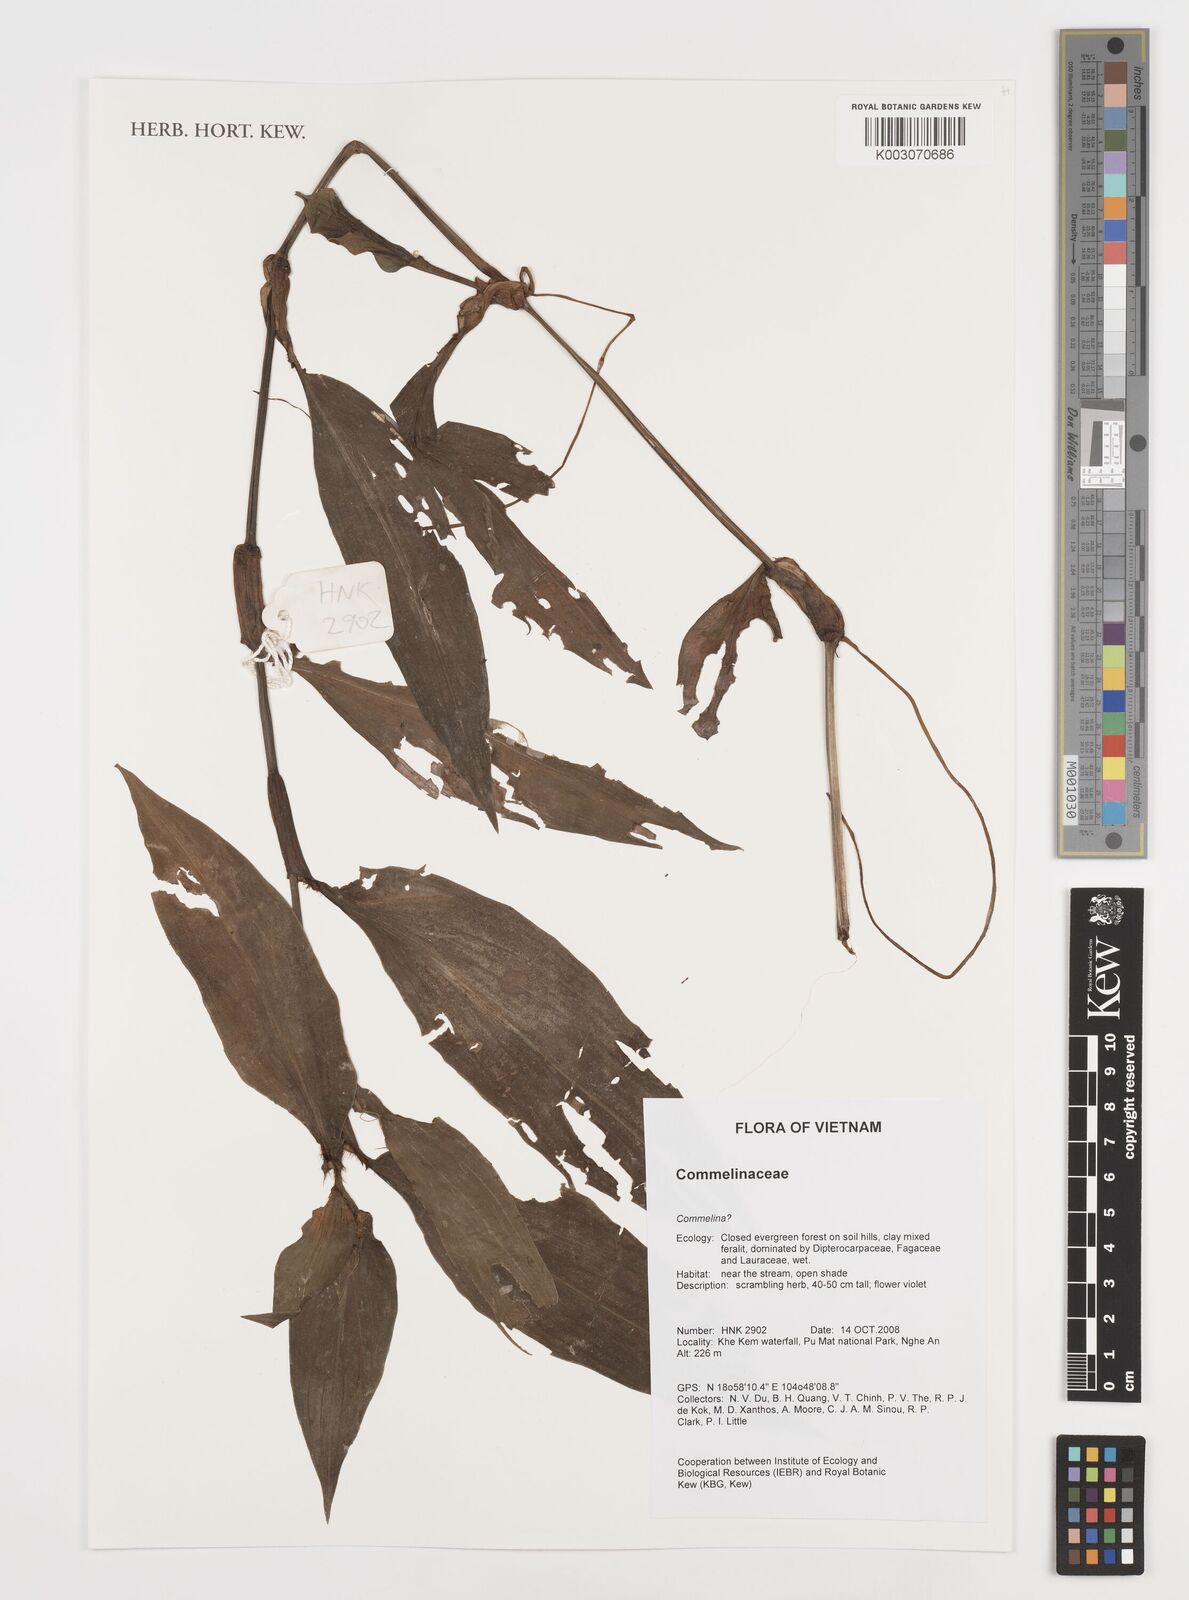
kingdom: Plantae
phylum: Tracheophyta
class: Liliopsida
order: Commelinales
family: Commelinaceae
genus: Commelina
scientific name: Commelina
